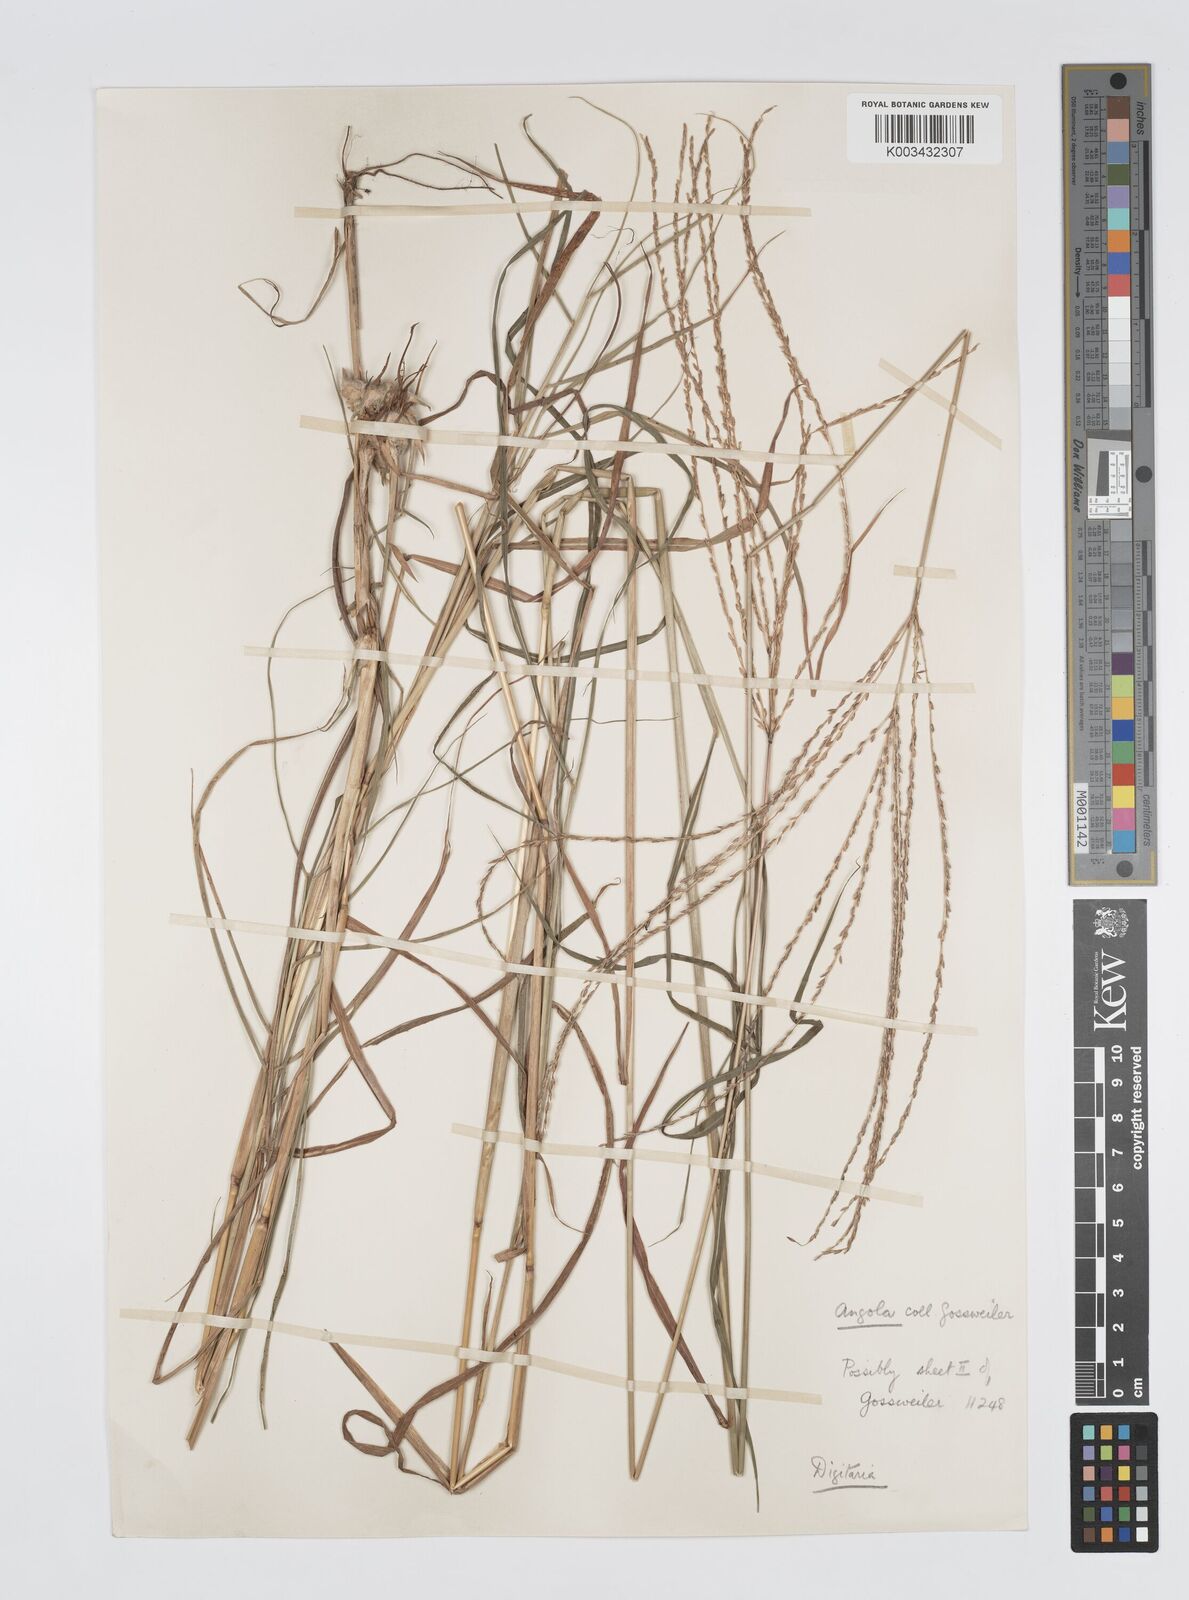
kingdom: Plantae
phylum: Tracheophyta
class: Liliopsida
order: Poales
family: Poaceae
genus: Digitaria
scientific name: Digitaria seriata
